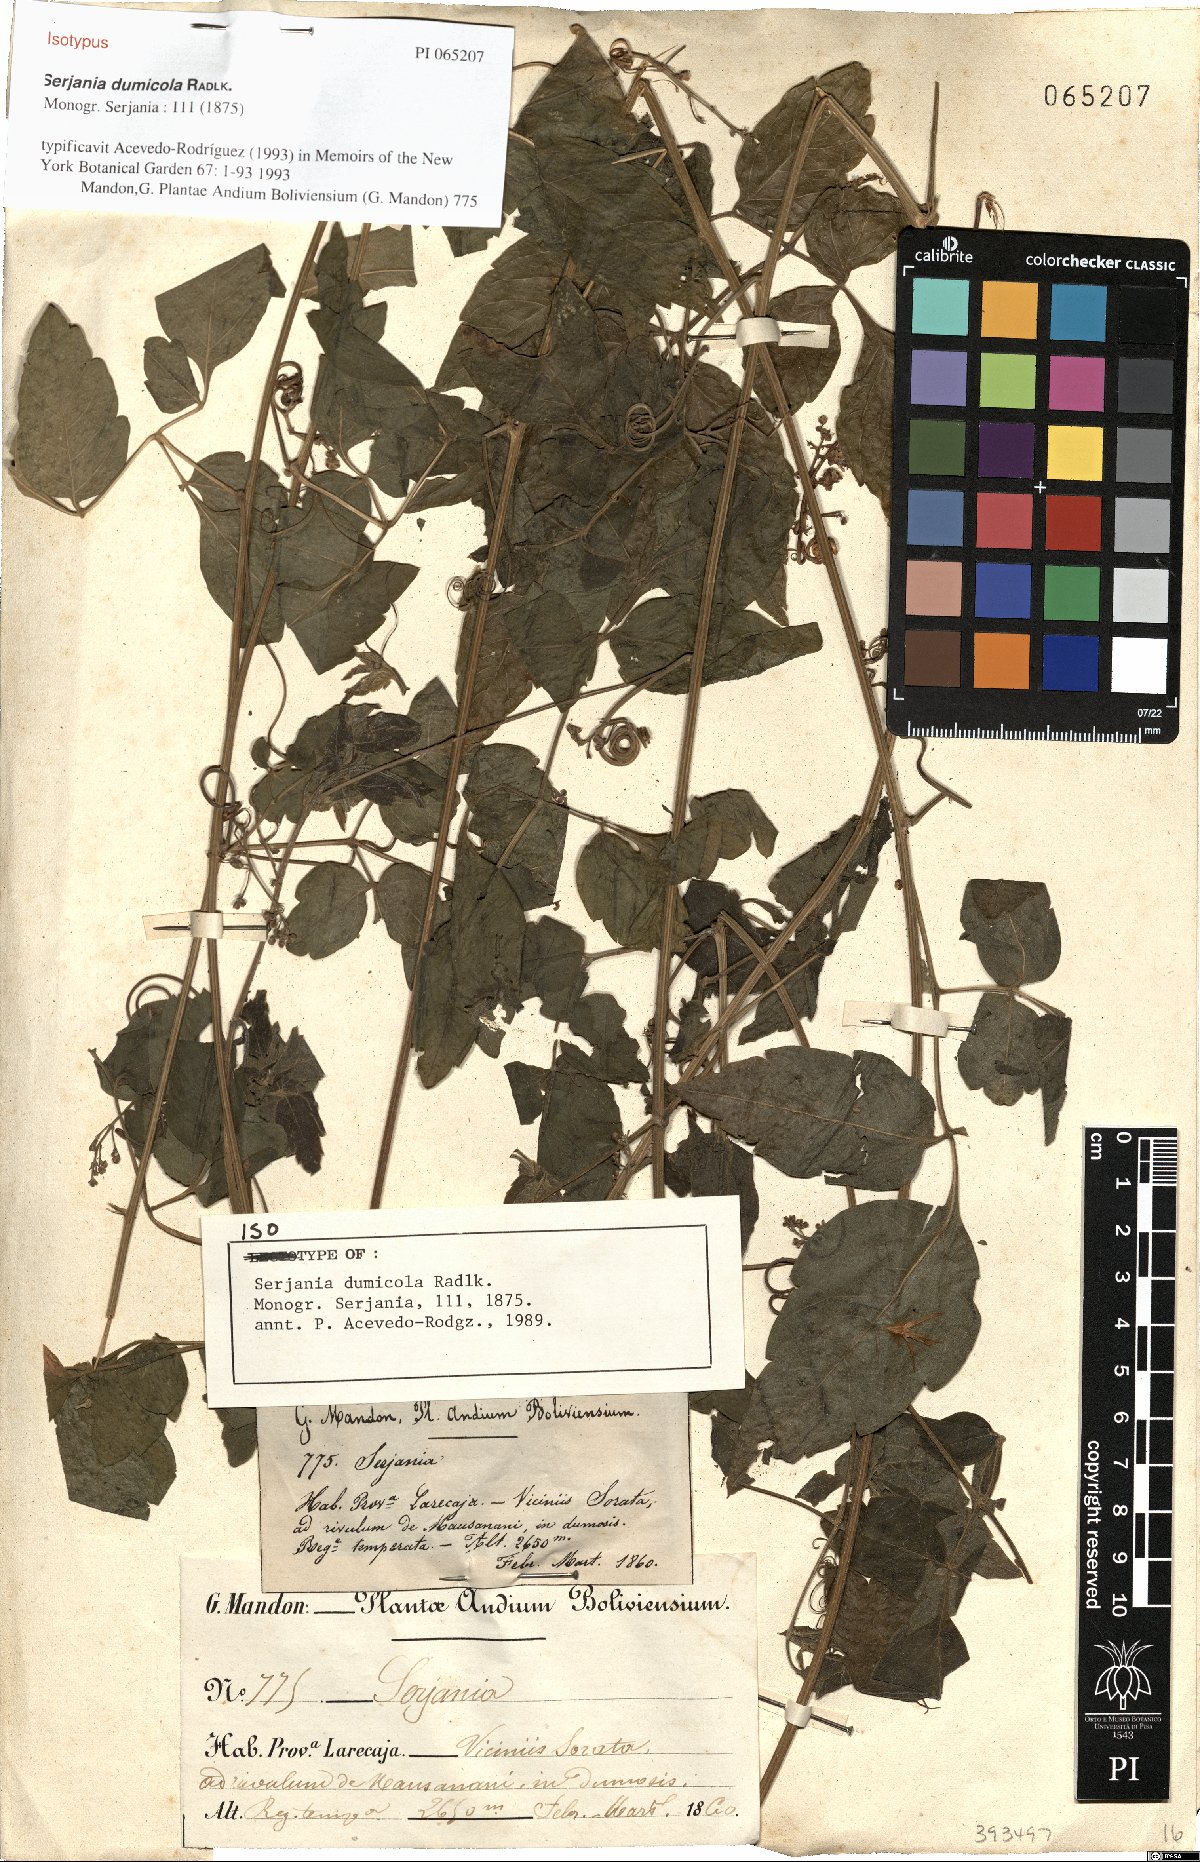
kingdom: Plantae
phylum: Tracheophyta
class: Magnoliopsida
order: Sapindales
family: Sapindaceae
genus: Serjania
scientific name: Serjania dumicola
